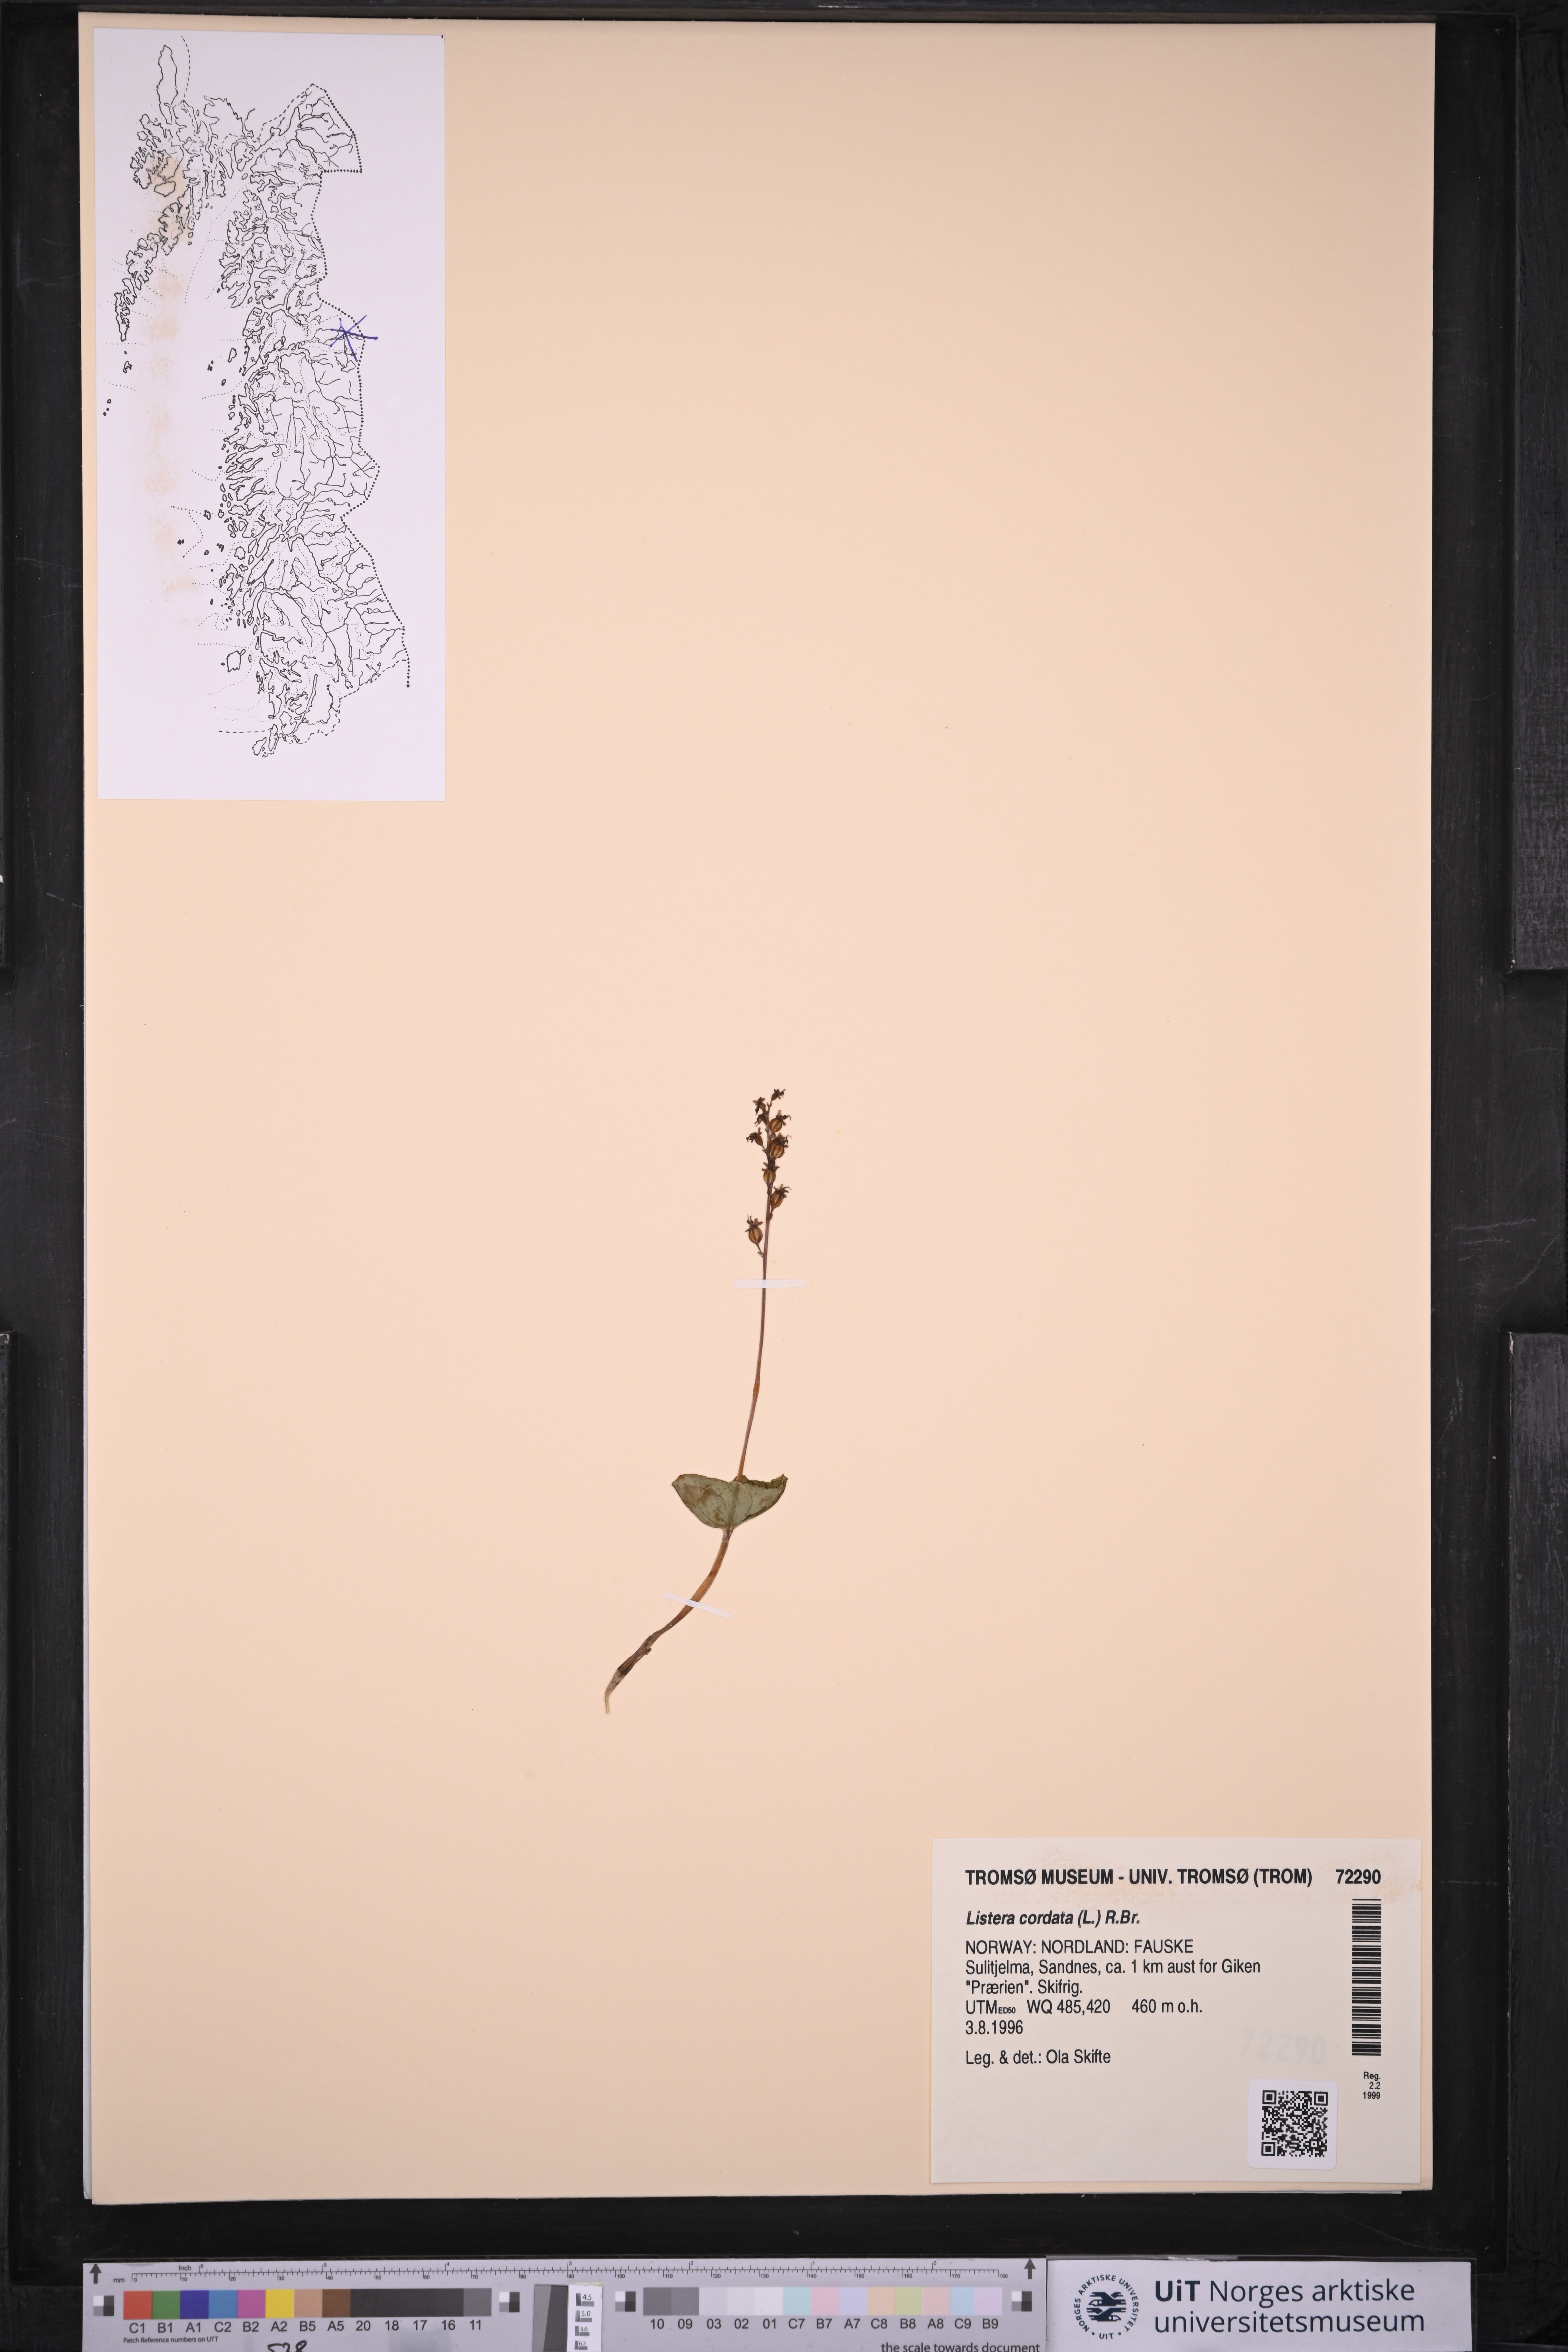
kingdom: Plantae
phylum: Tracheophyta
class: Liliopsida
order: Asparagales
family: Orchidaceae
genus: Neottia
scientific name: Neottia cordata
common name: Lesser twayblade
